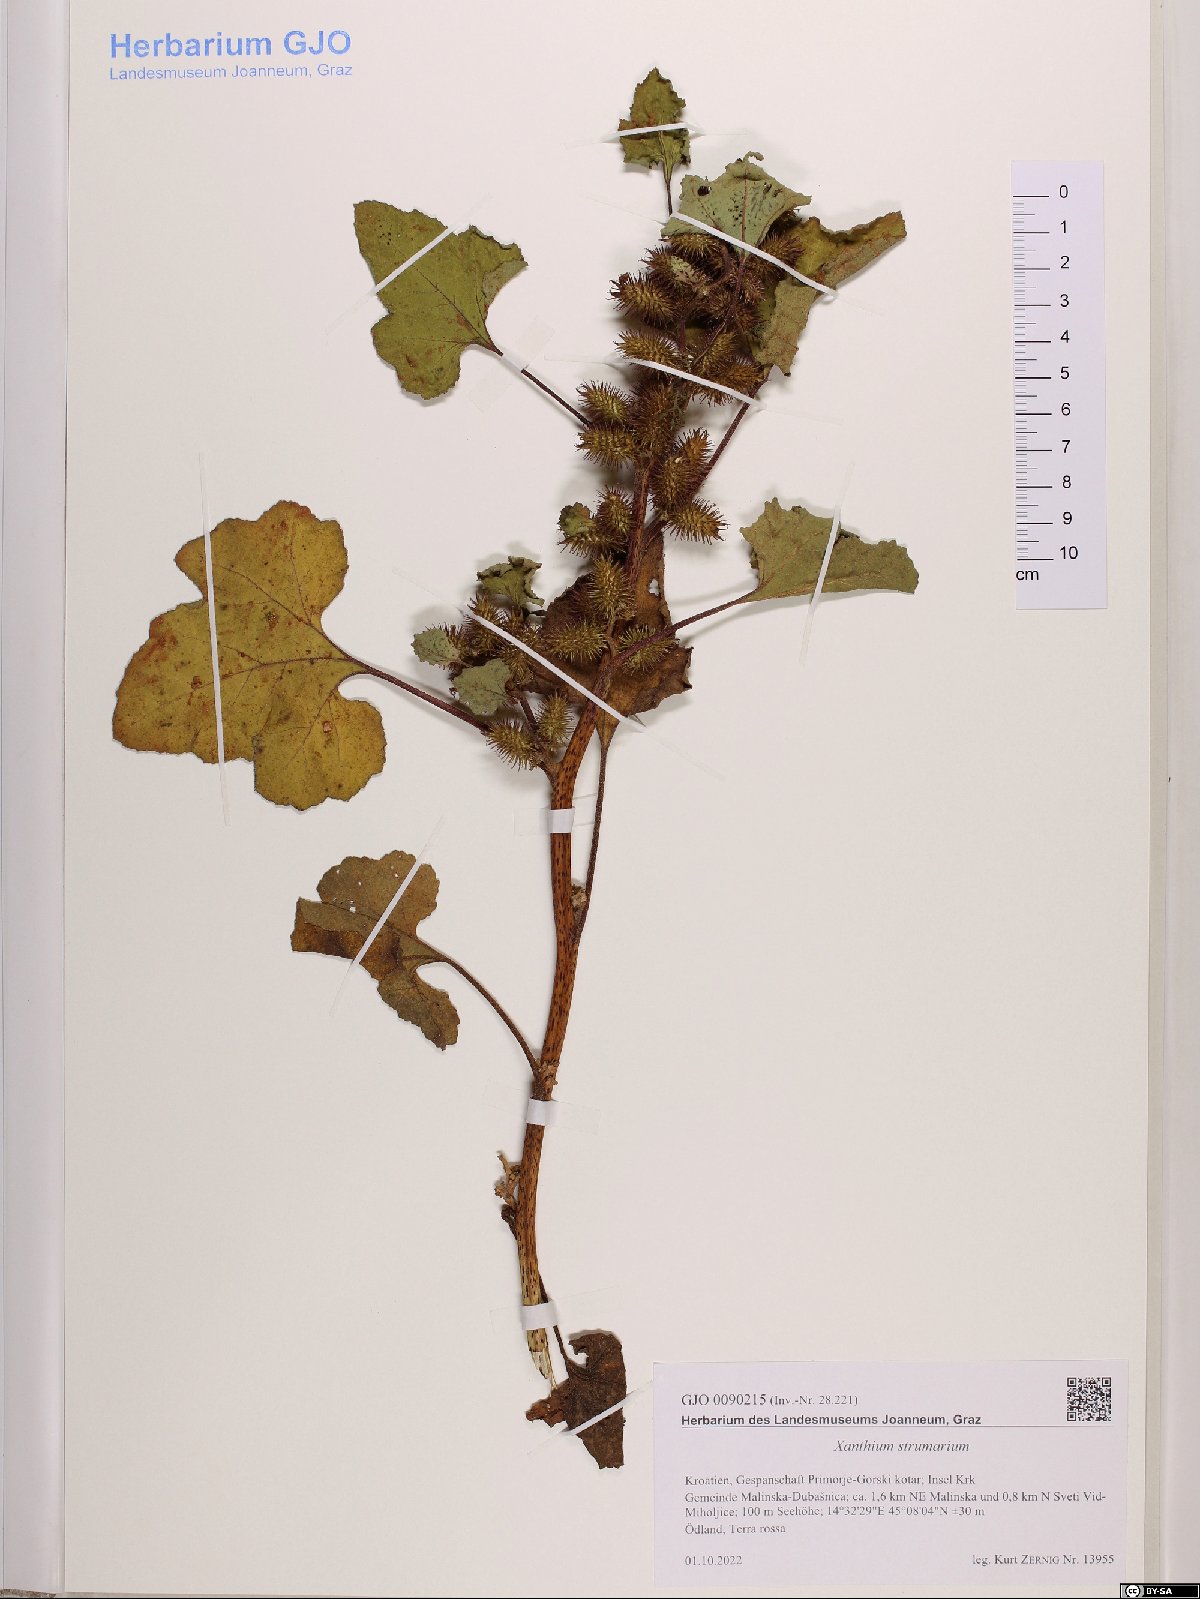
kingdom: Plantae
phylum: Tracheophyta
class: Magnoliopsida
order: Asterales
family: Asteraceae
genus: Xanthium
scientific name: Xanthium strumarium
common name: Rough cocklebur
